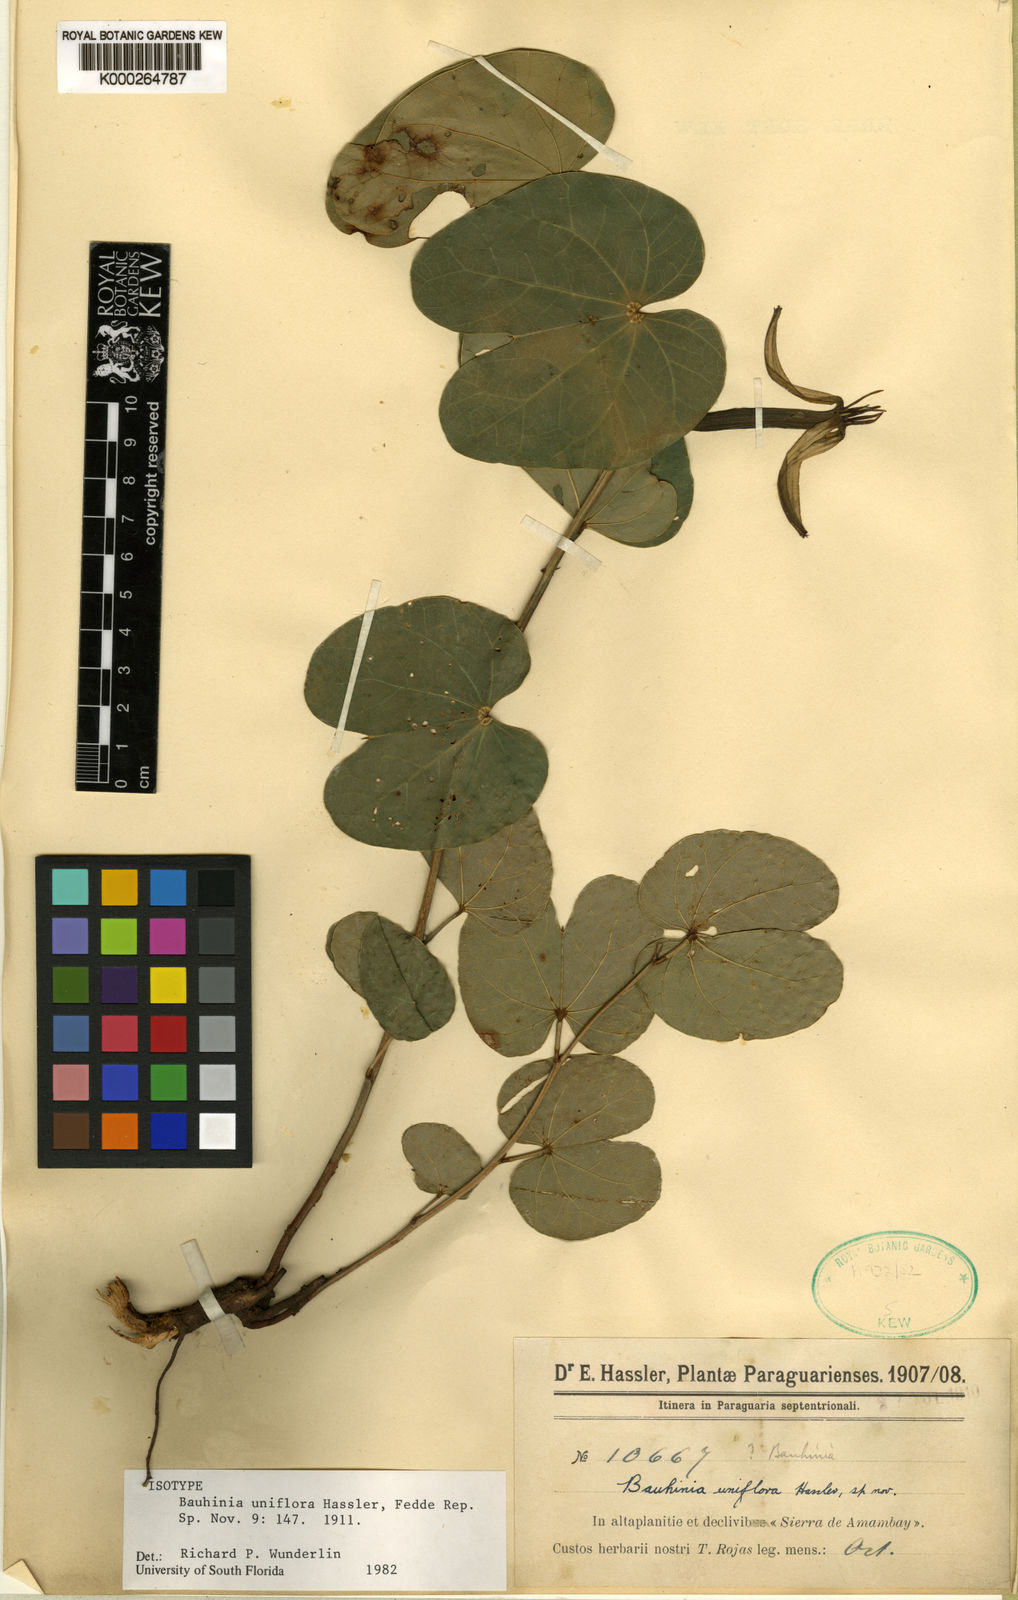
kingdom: Plantae
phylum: Tracheophyta
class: Magnoliopsida
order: Fabales
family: Fabaceae
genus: Bauhinia
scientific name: Bauhinia amambayensis
